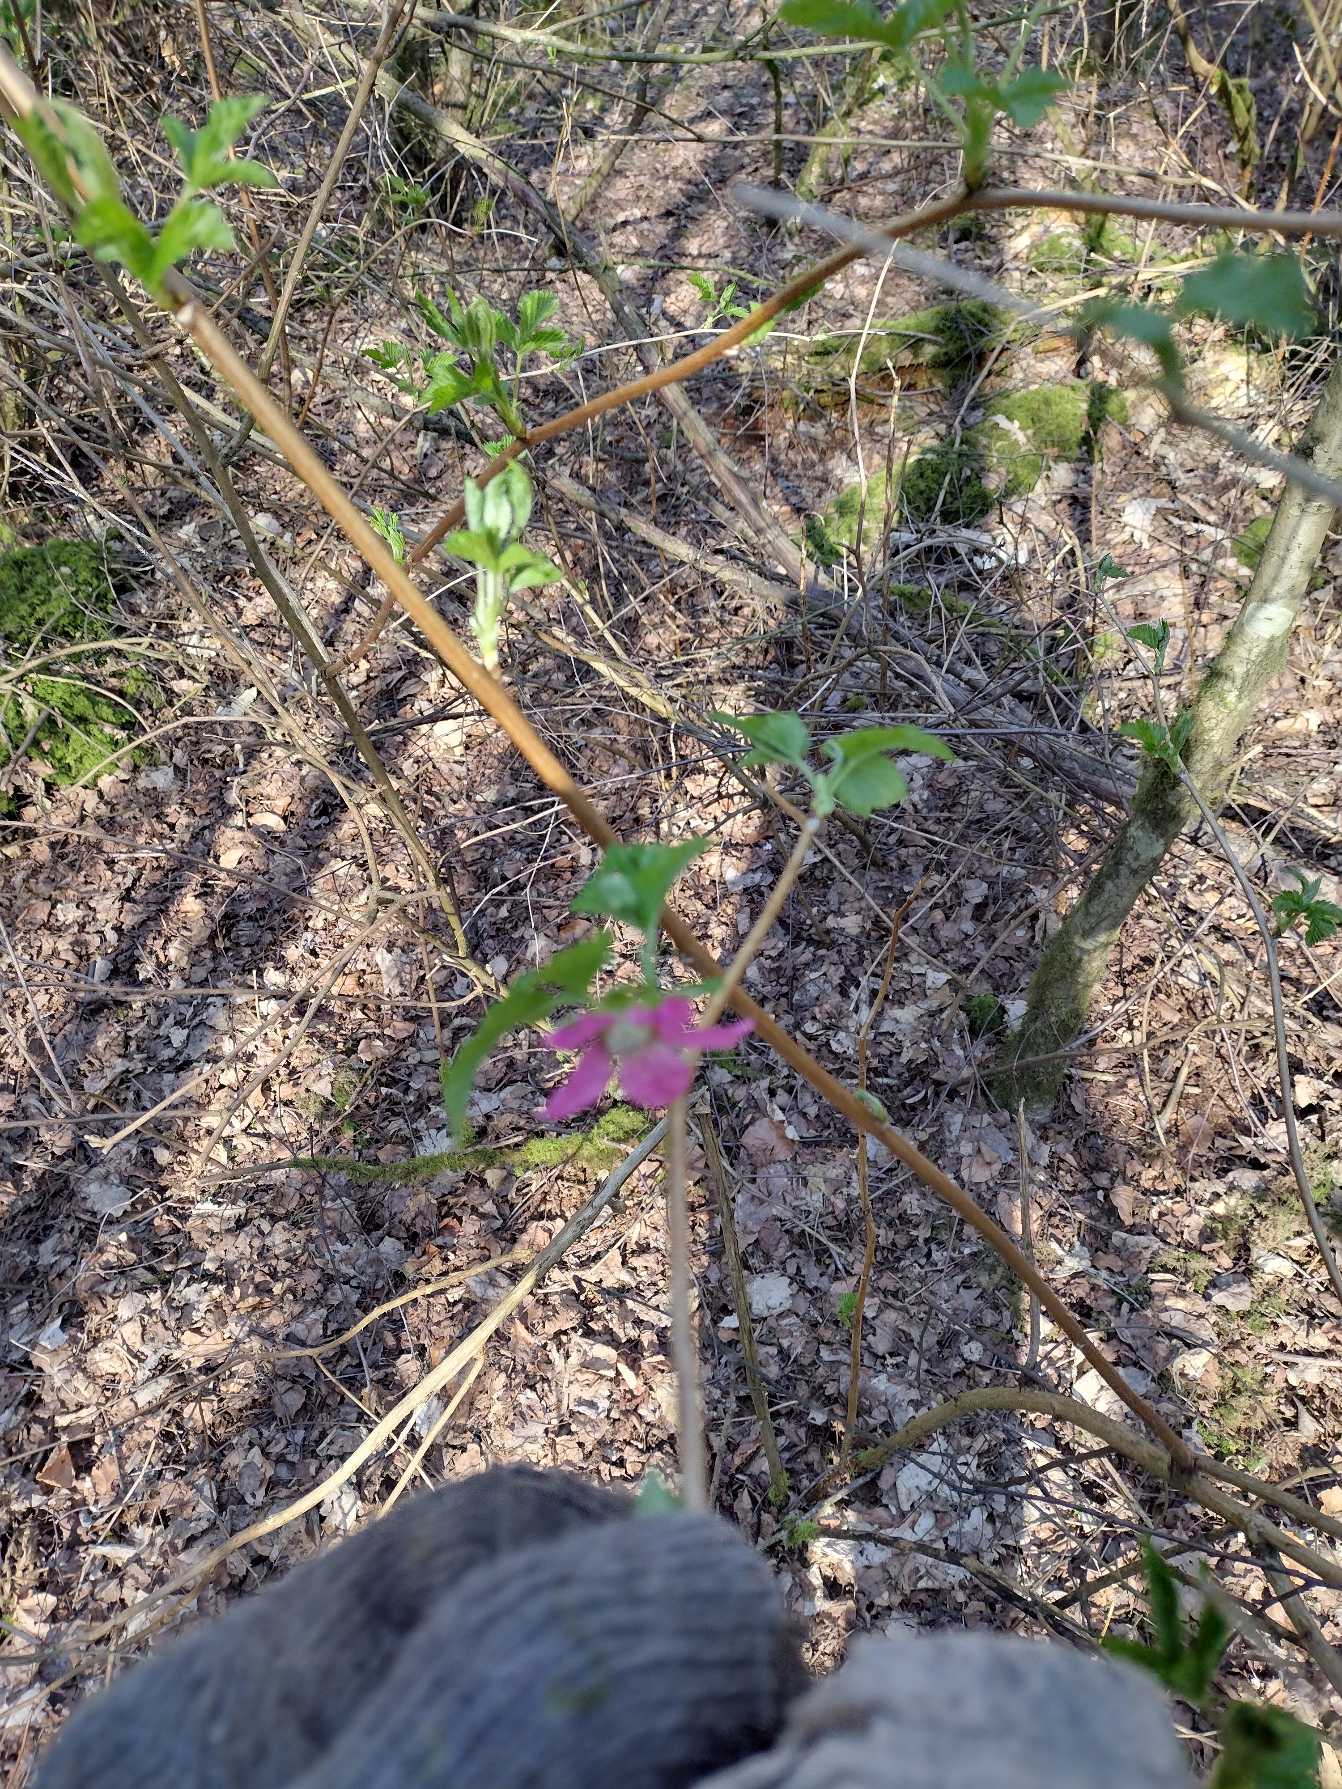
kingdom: Plantae
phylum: Tracheophyta
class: Magnoliopsida
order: Rosales
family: Rosaceae
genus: Rubus
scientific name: Rubus spectabilis
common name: Laksebær
